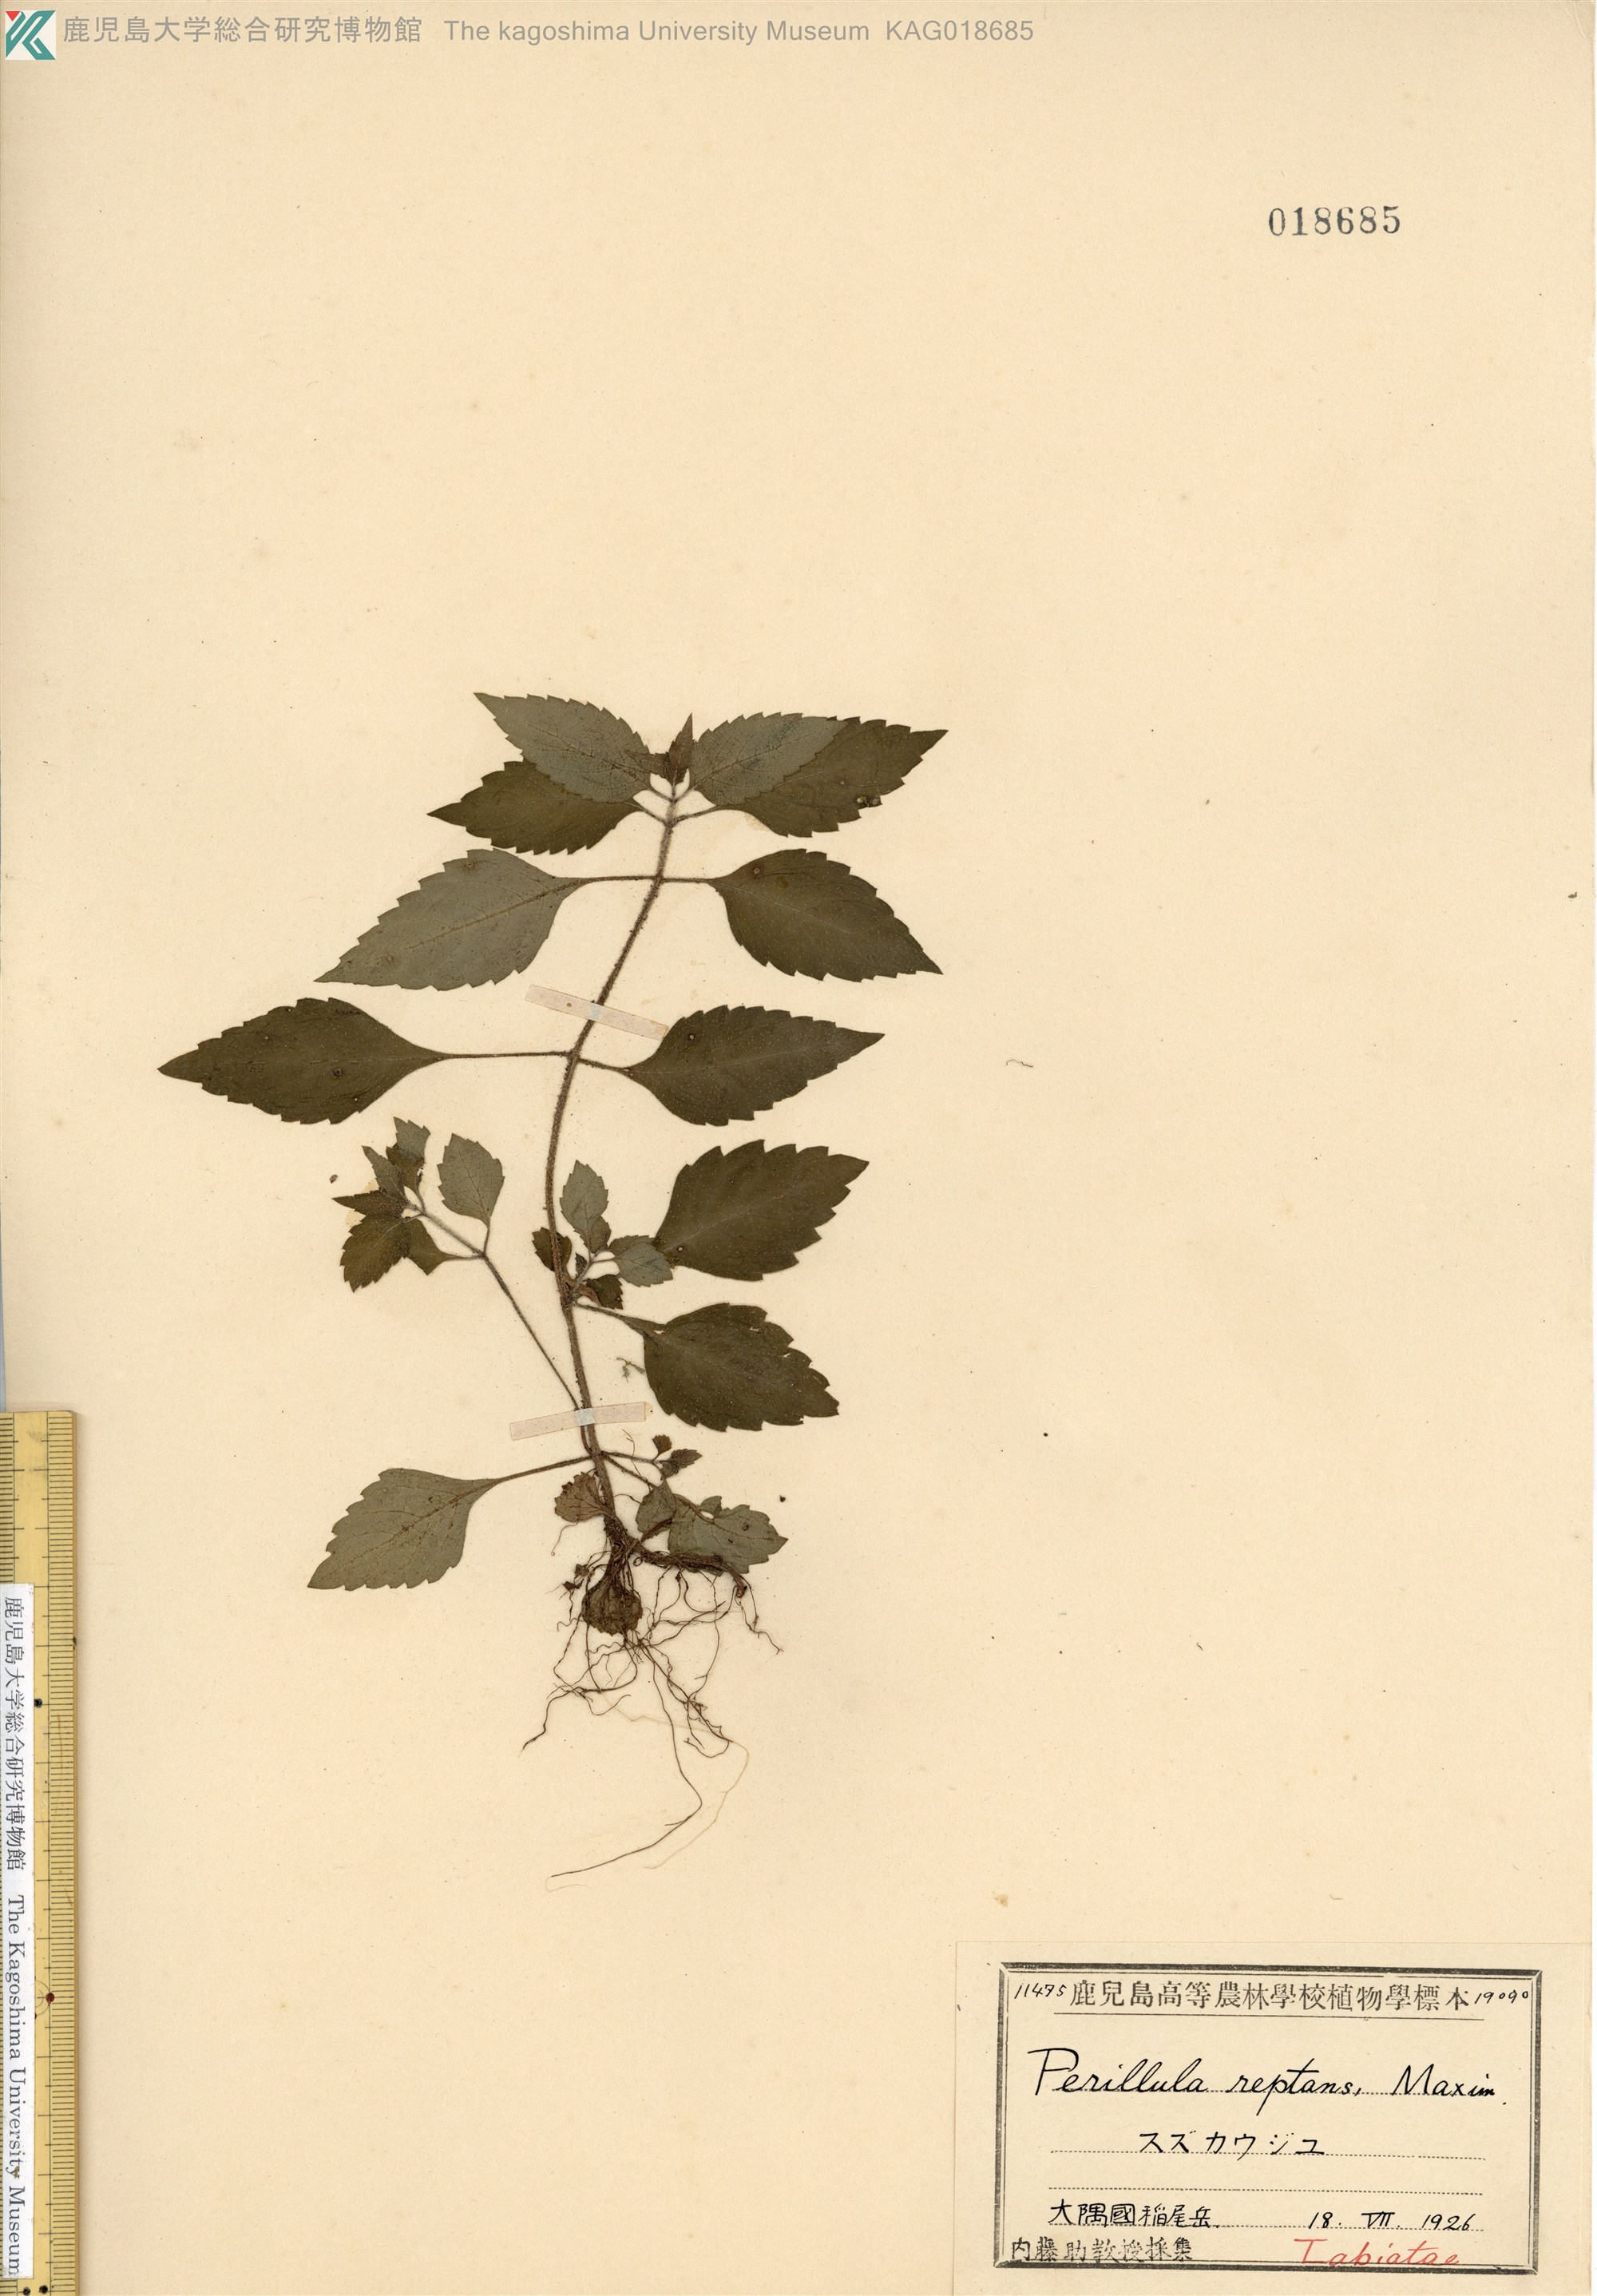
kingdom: Plantae
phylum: Tracheophyta
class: Magnoliopsida
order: Lamiales
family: Lamiaceae
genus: Perillula
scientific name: Perillula reptans
